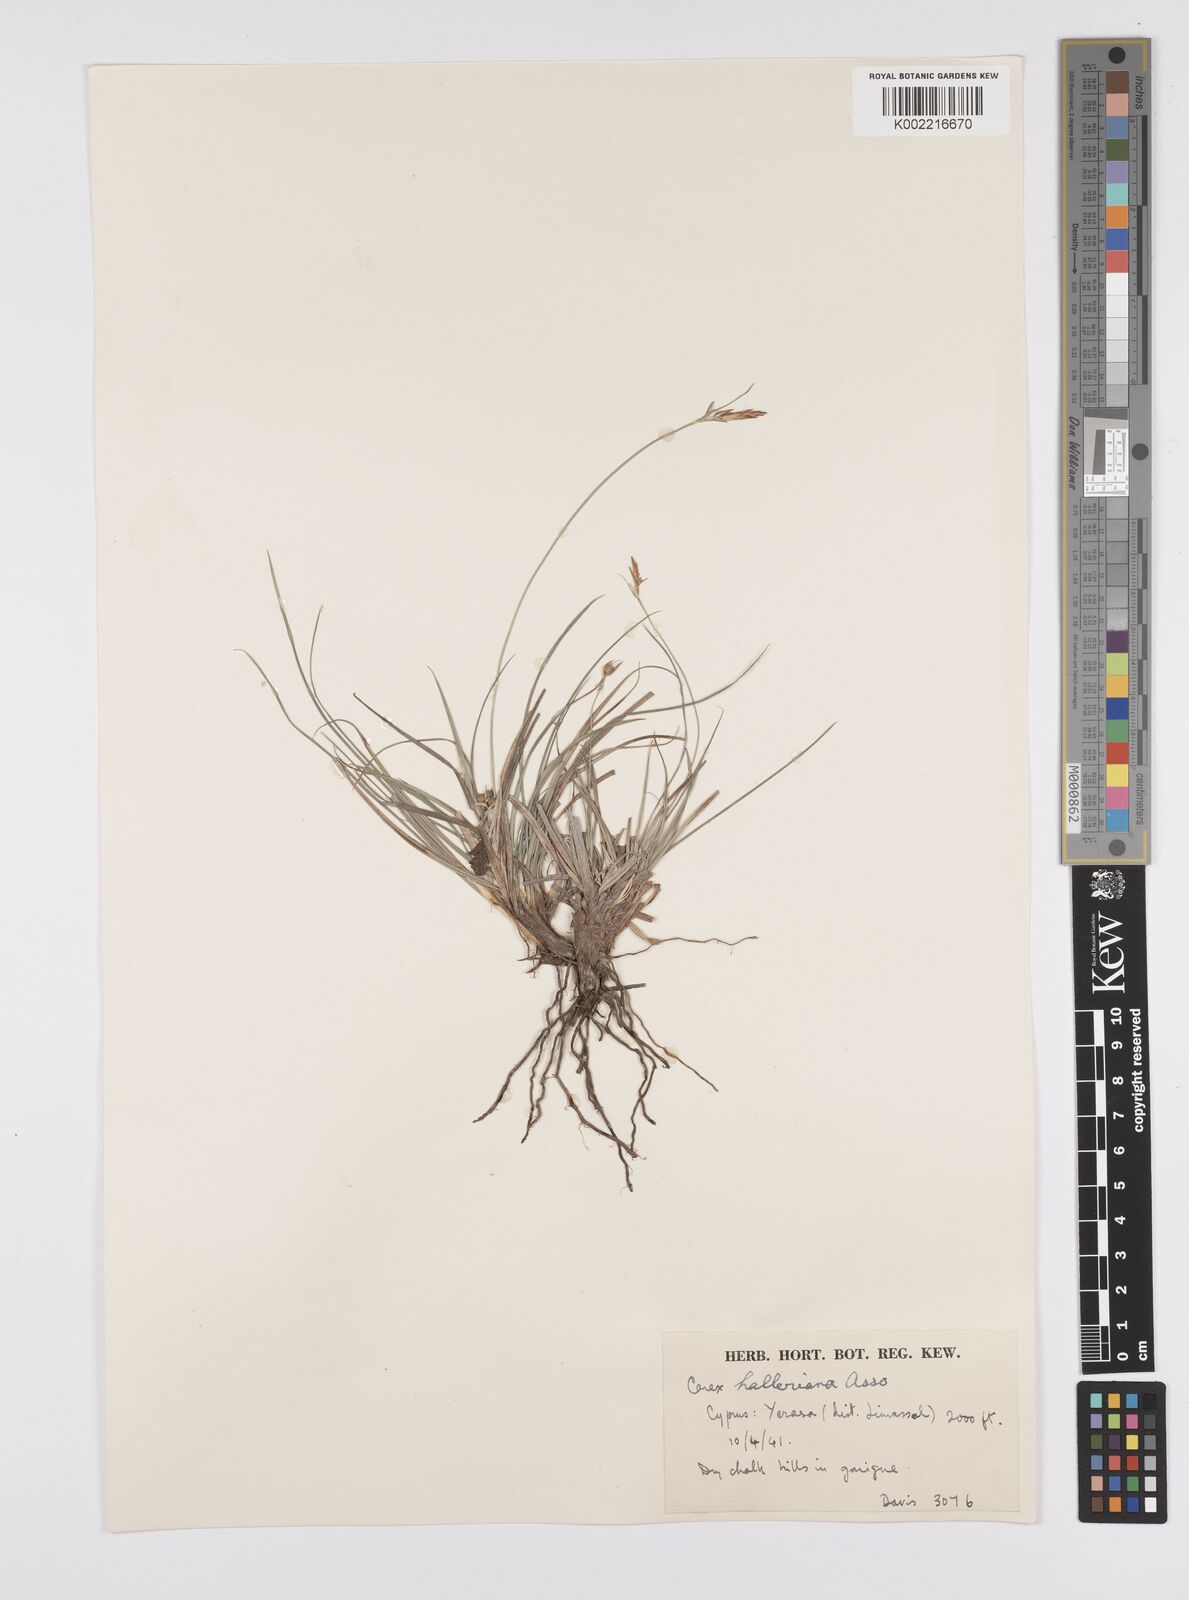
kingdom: Plantae
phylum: Tracheophyta
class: Liliopsida
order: Poales
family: Cyperaceae
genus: Carex
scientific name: Carex halleriana
